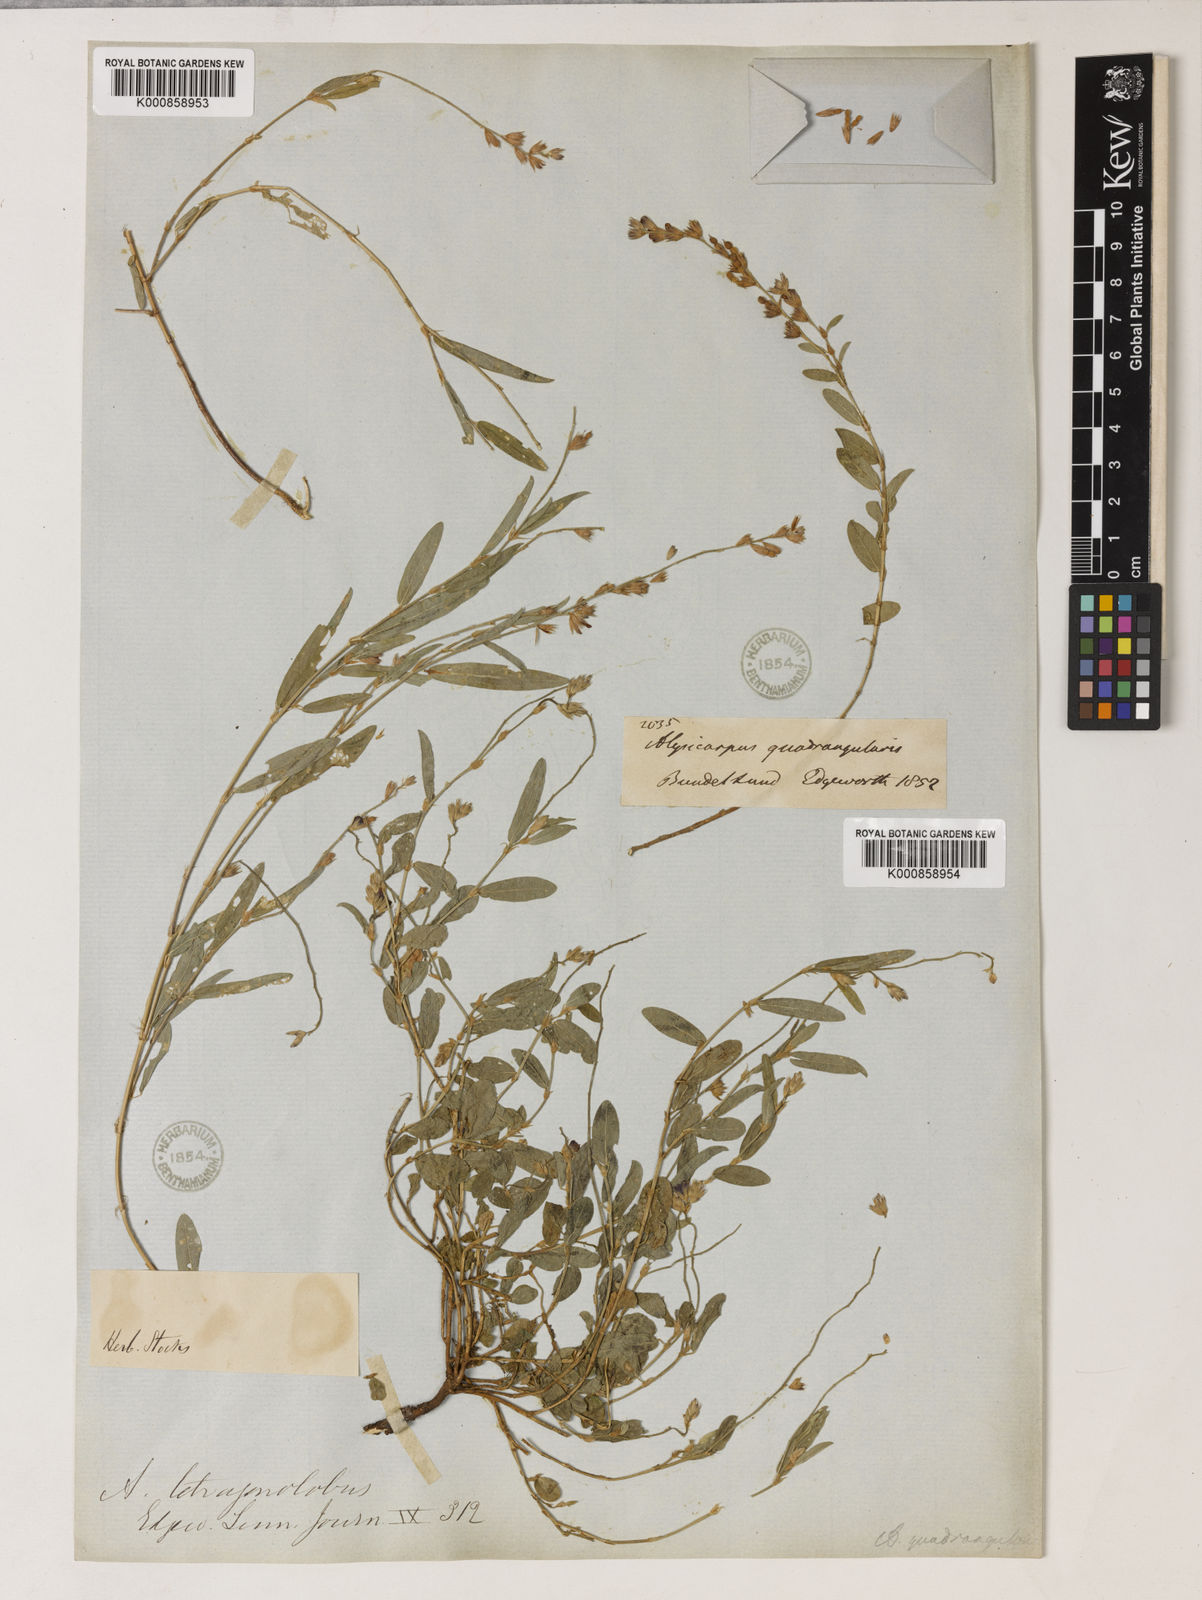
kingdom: Plantae
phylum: Tracheophyta
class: Magnoliopsida
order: Fabales
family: Fabaceae
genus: Alysicarpus
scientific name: Alysicarpus
